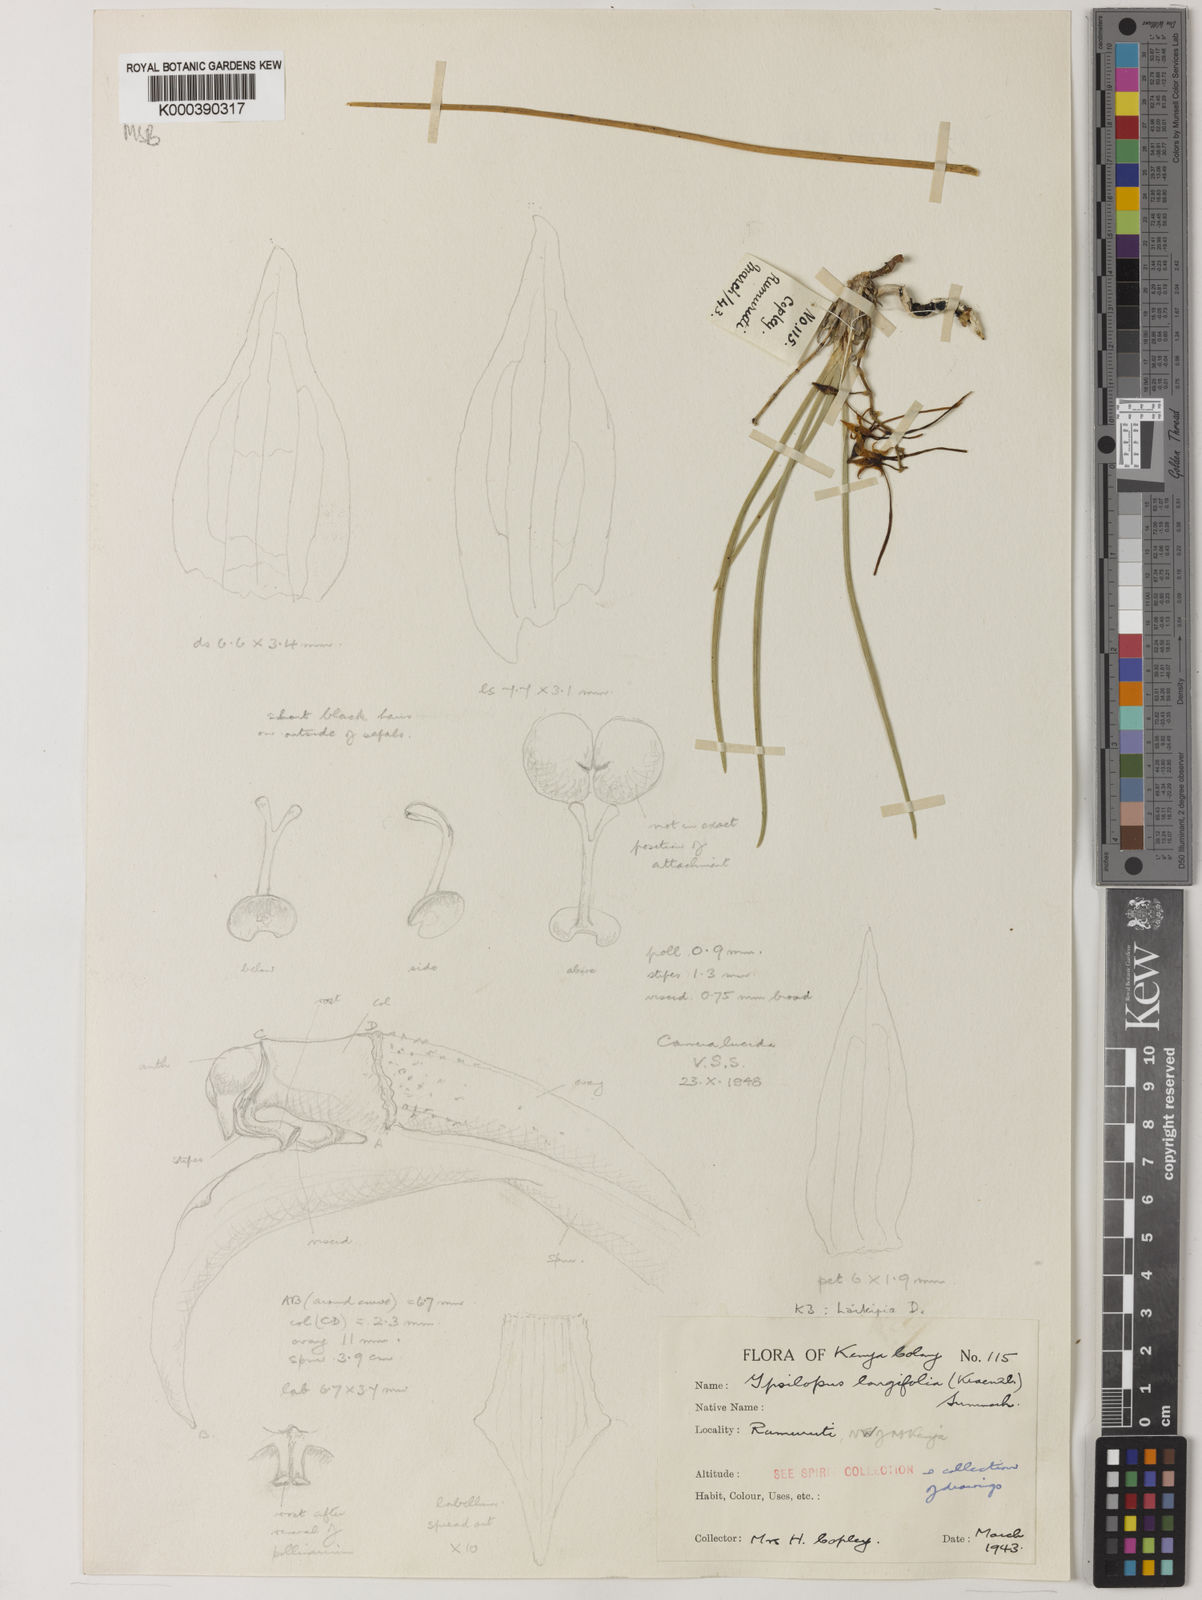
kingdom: Plantae
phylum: Tracheophyta
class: Liliopsida
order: Asparagales
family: Orchidaceae
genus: Ypsilopus
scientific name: Ypsilopus longifolius
